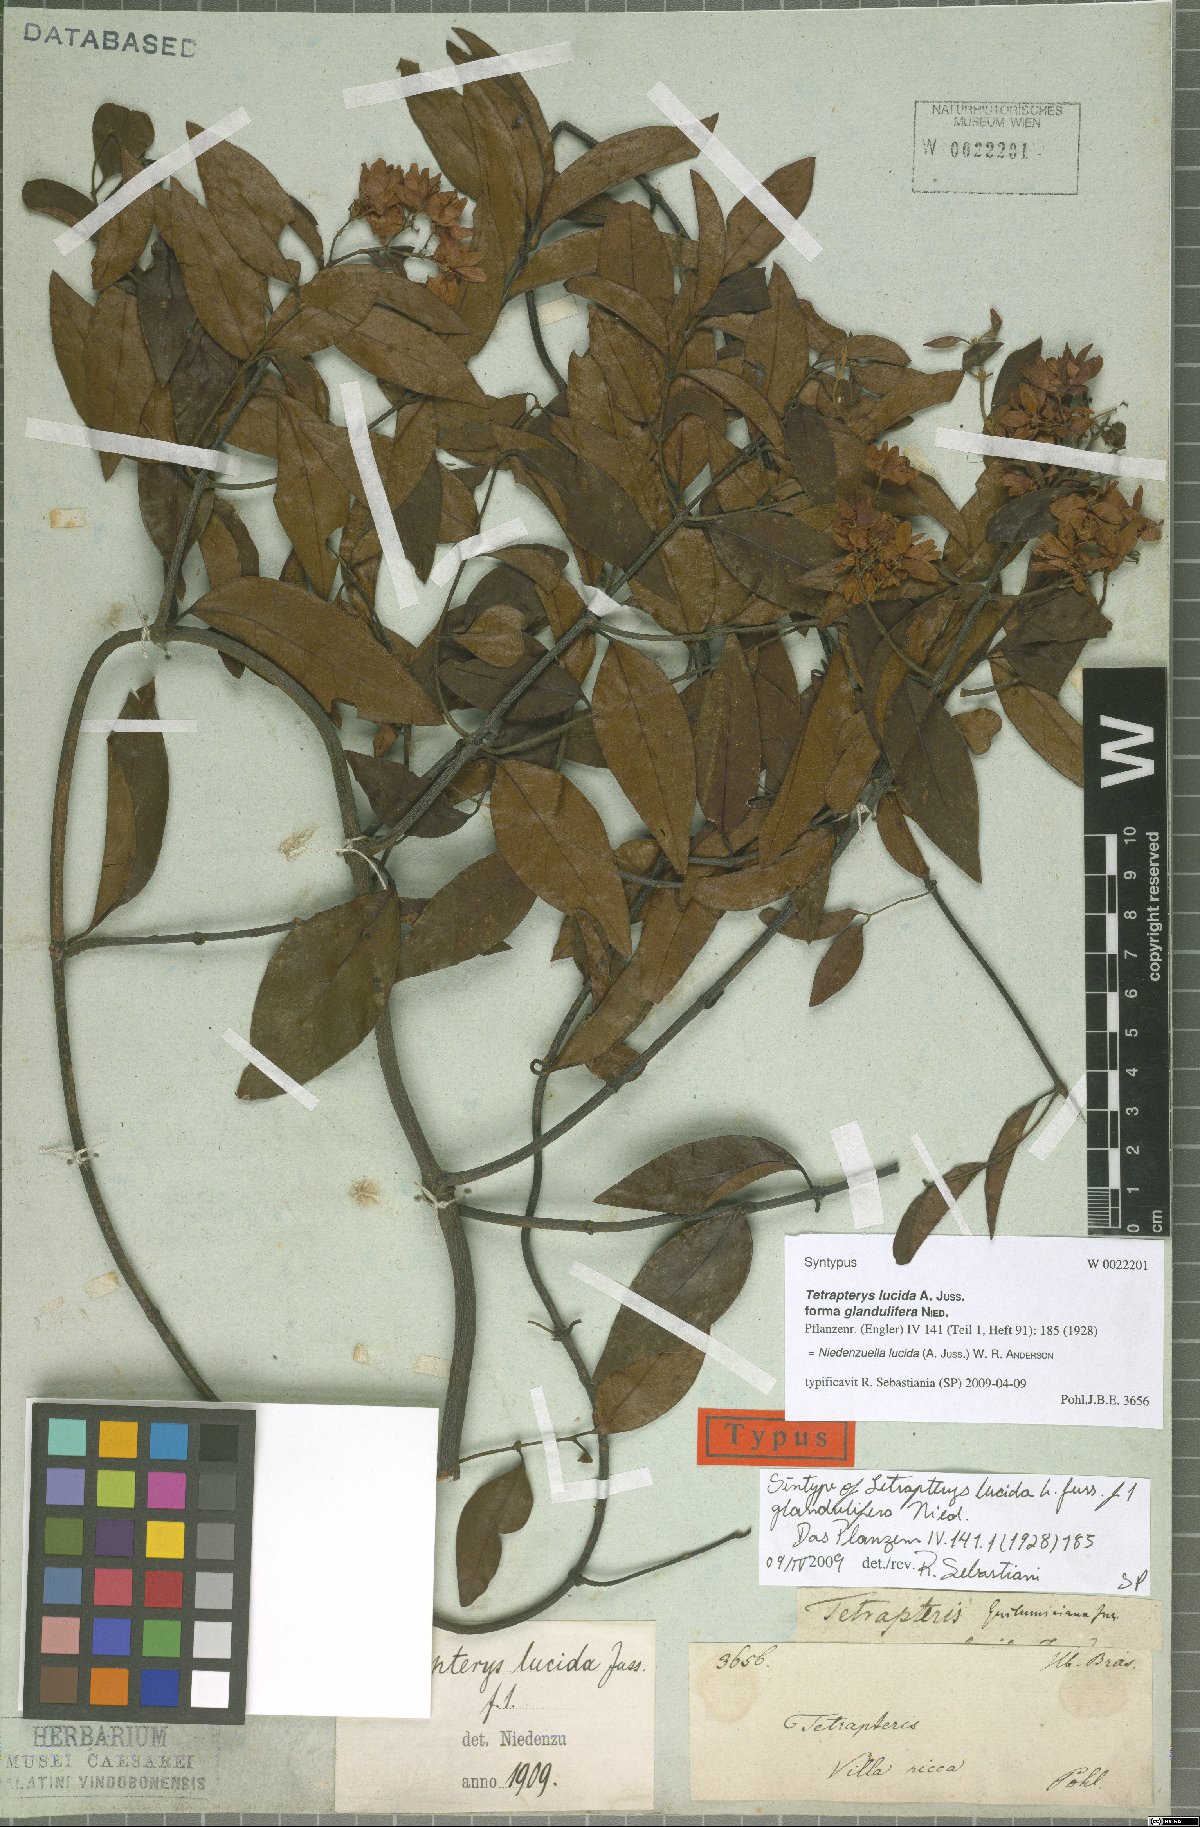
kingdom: Plantae
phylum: Tracheophyta
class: Magnoliopsida
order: Malpighiales
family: Malpighiaceae
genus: Niedenzuella
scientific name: Niedenzuella lucida
